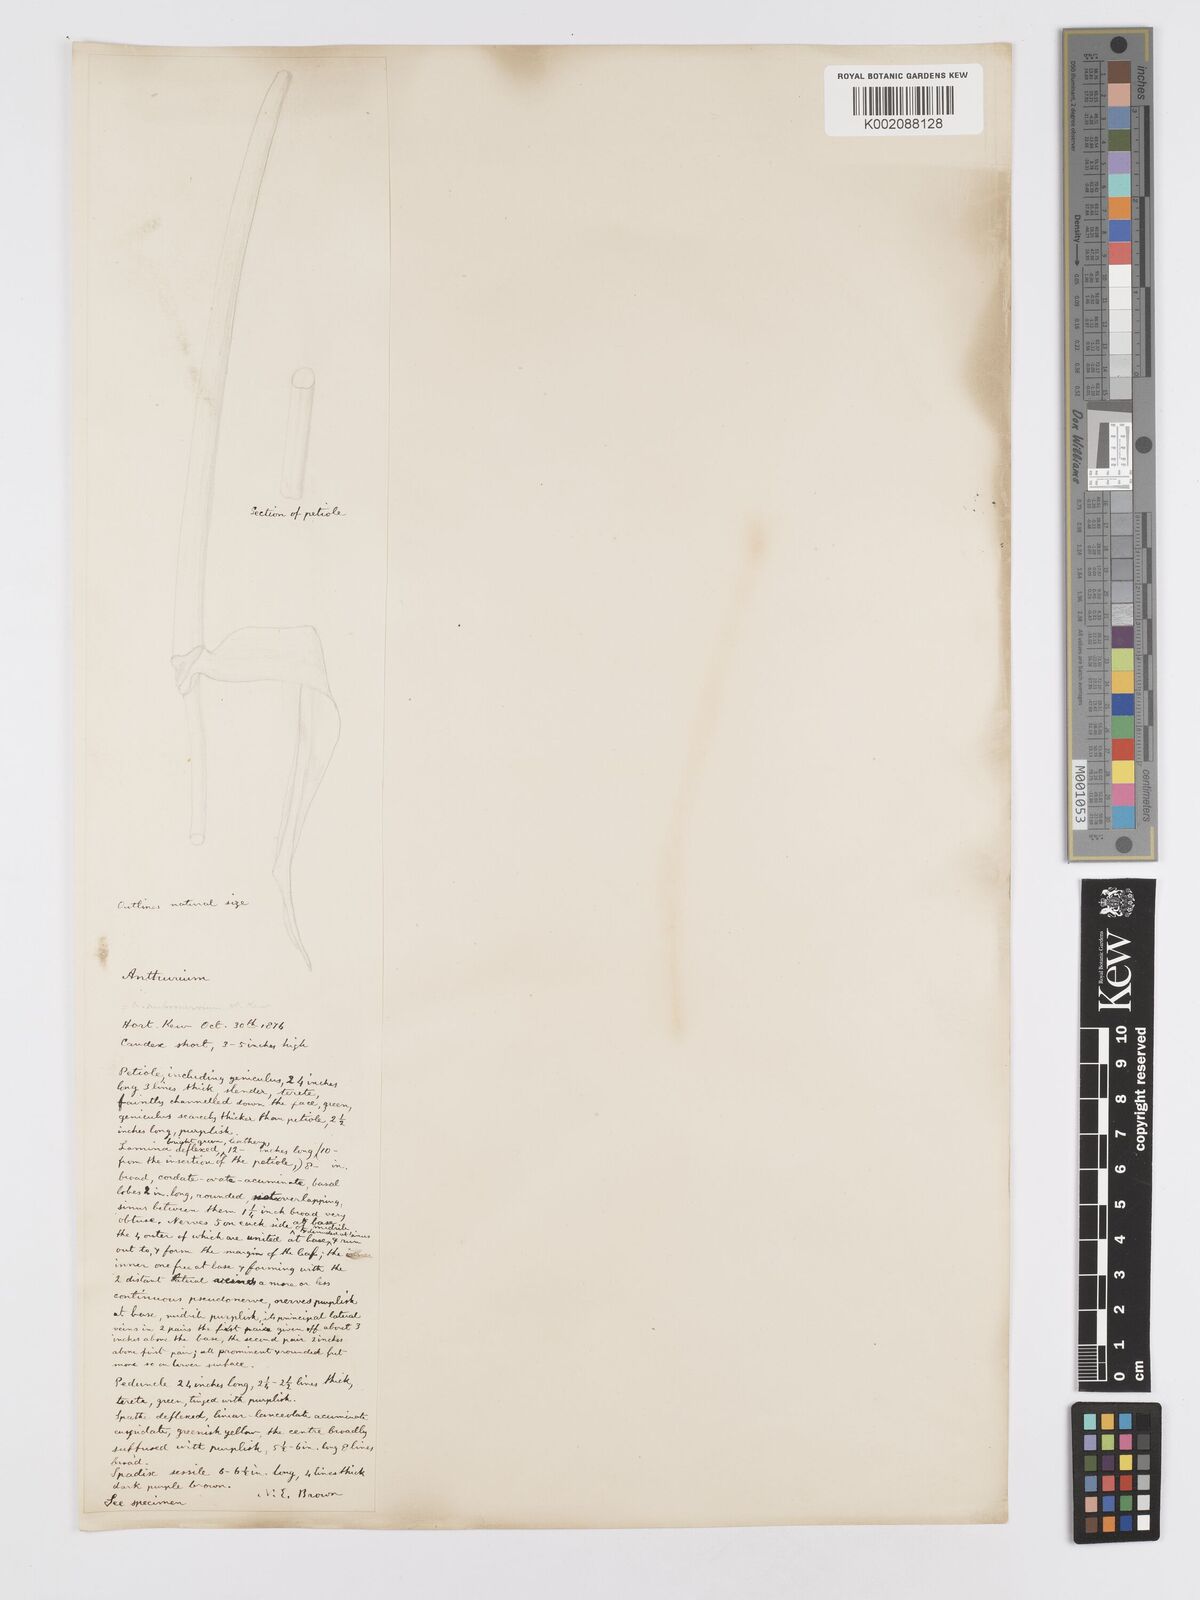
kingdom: Plantae
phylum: Tracheophyta
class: Liliopsida
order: Alismatales
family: Araceae
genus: Anthurium
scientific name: Anthurium
